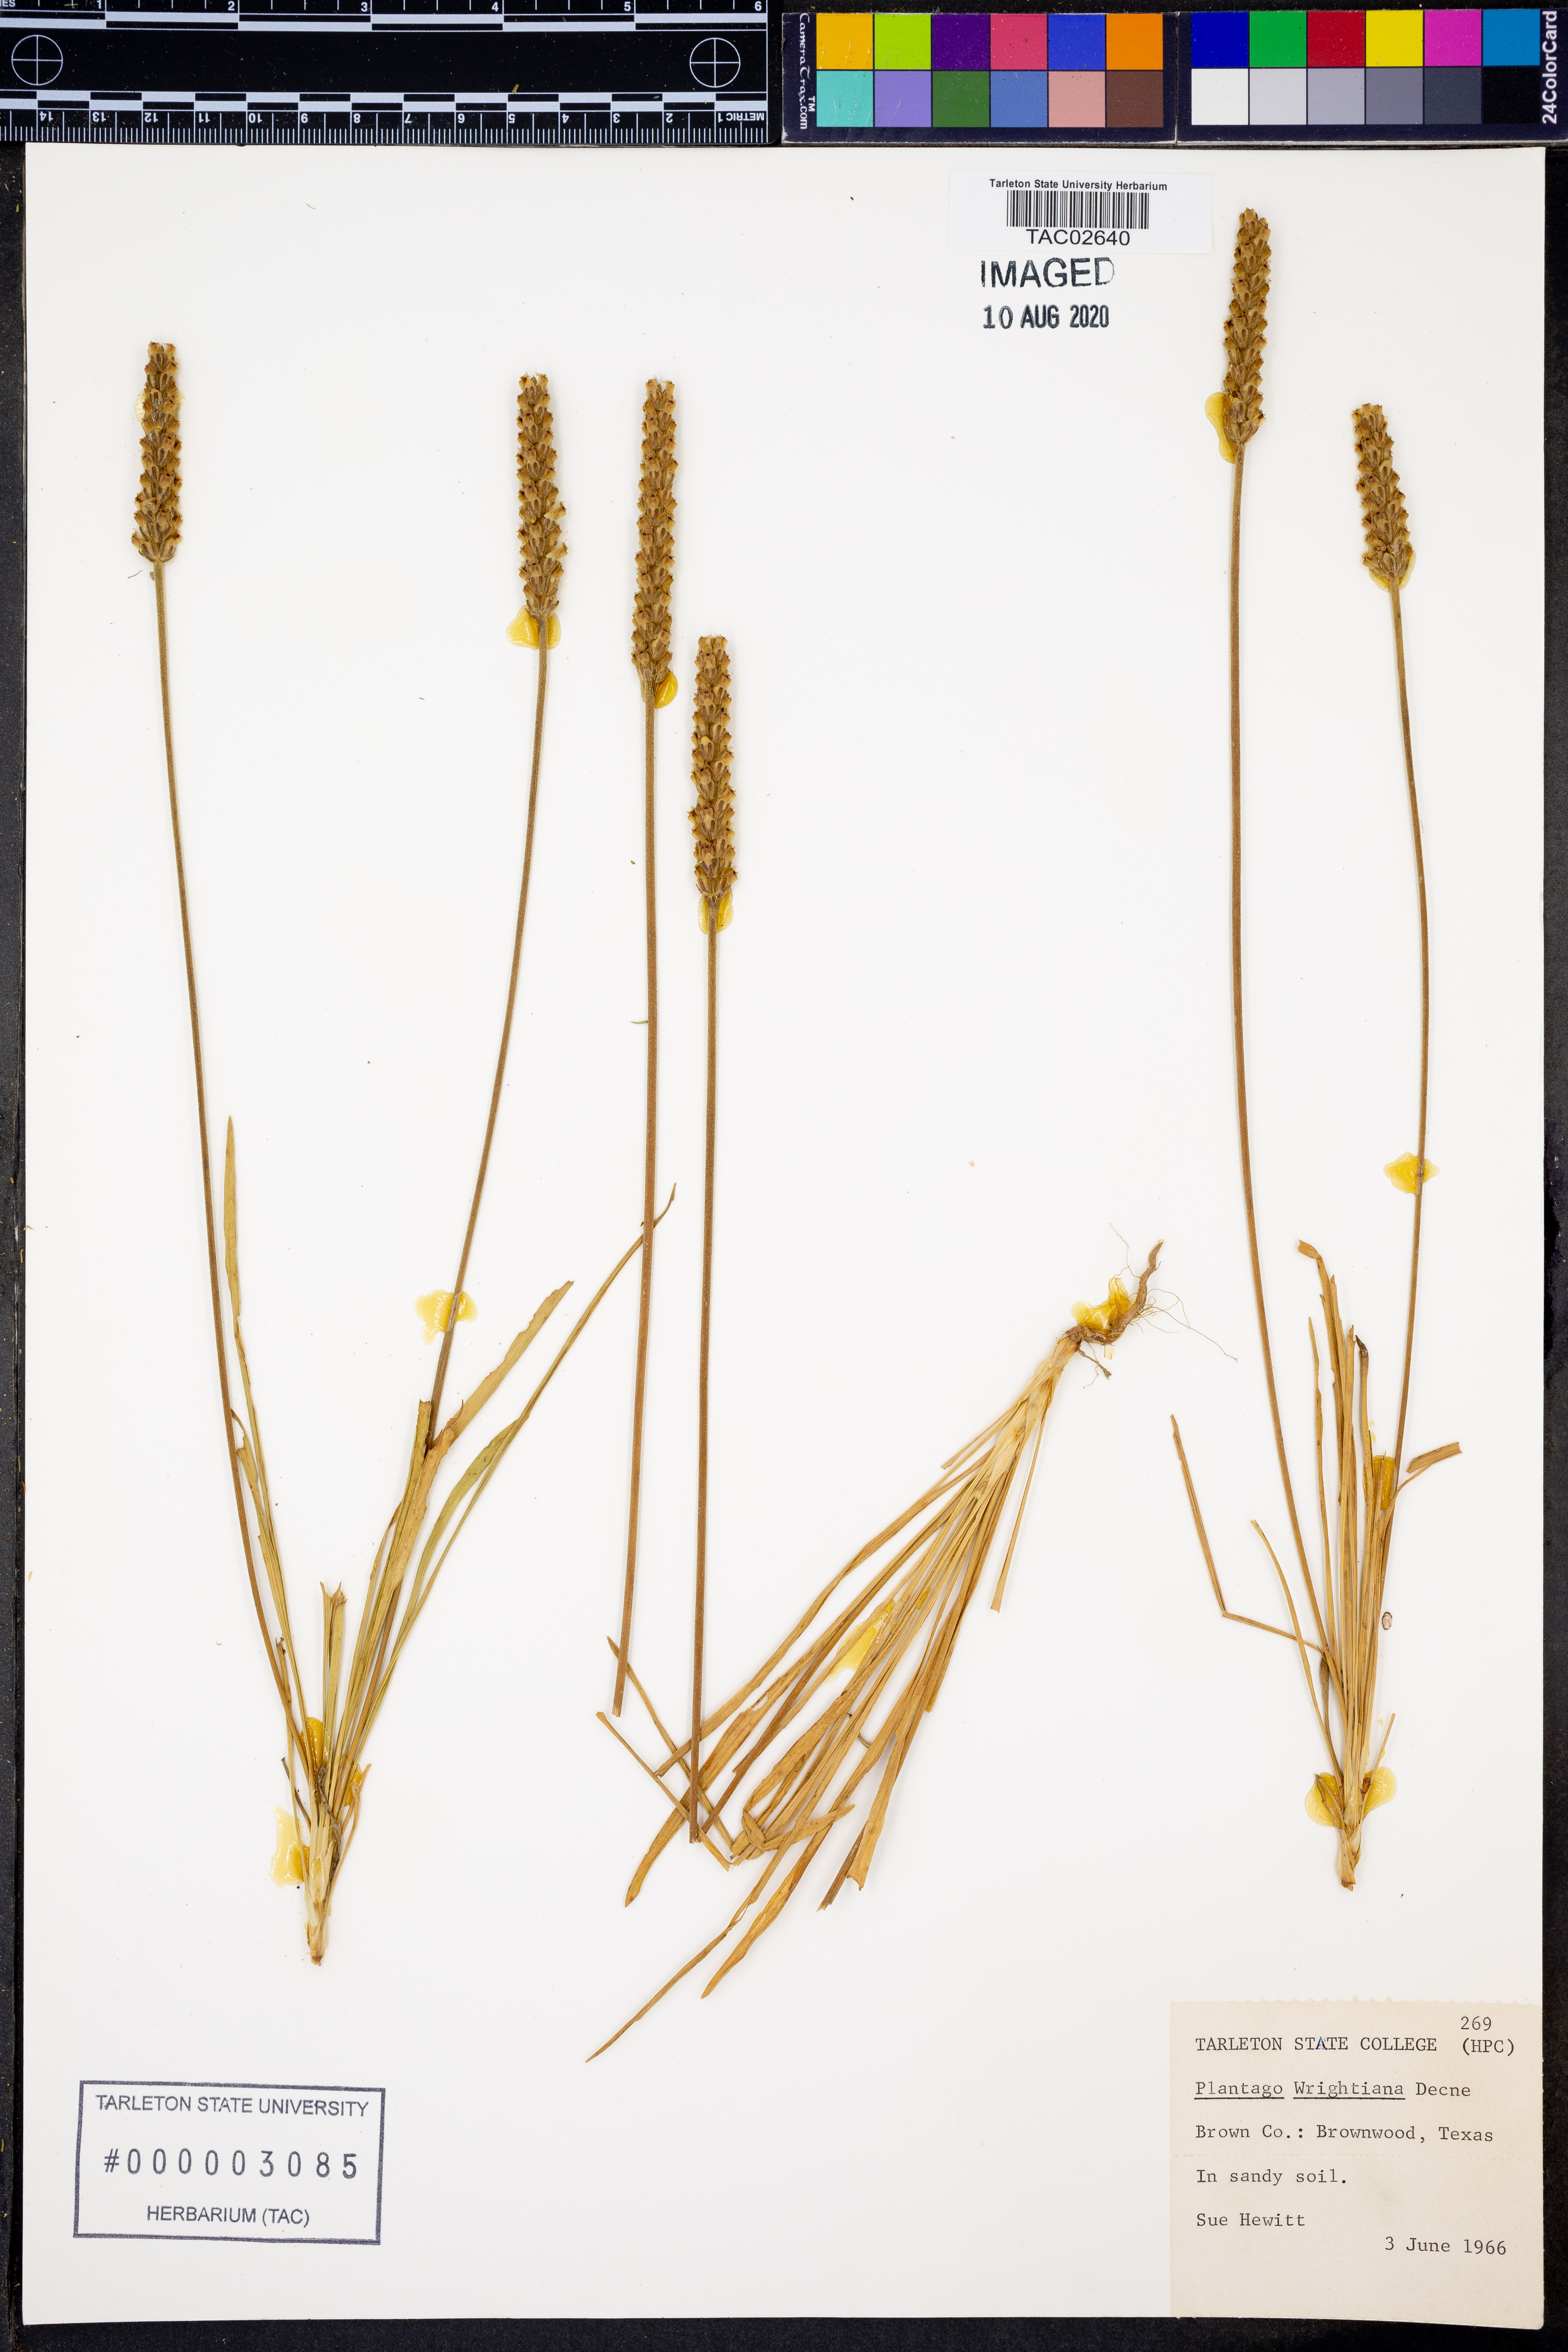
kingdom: Plantae
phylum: Tracheophyta
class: Magnoliopsida
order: Lamiales
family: Plantaginaceae
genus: Plantago
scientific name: Plantago wrightiana
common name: Wright's plantain
